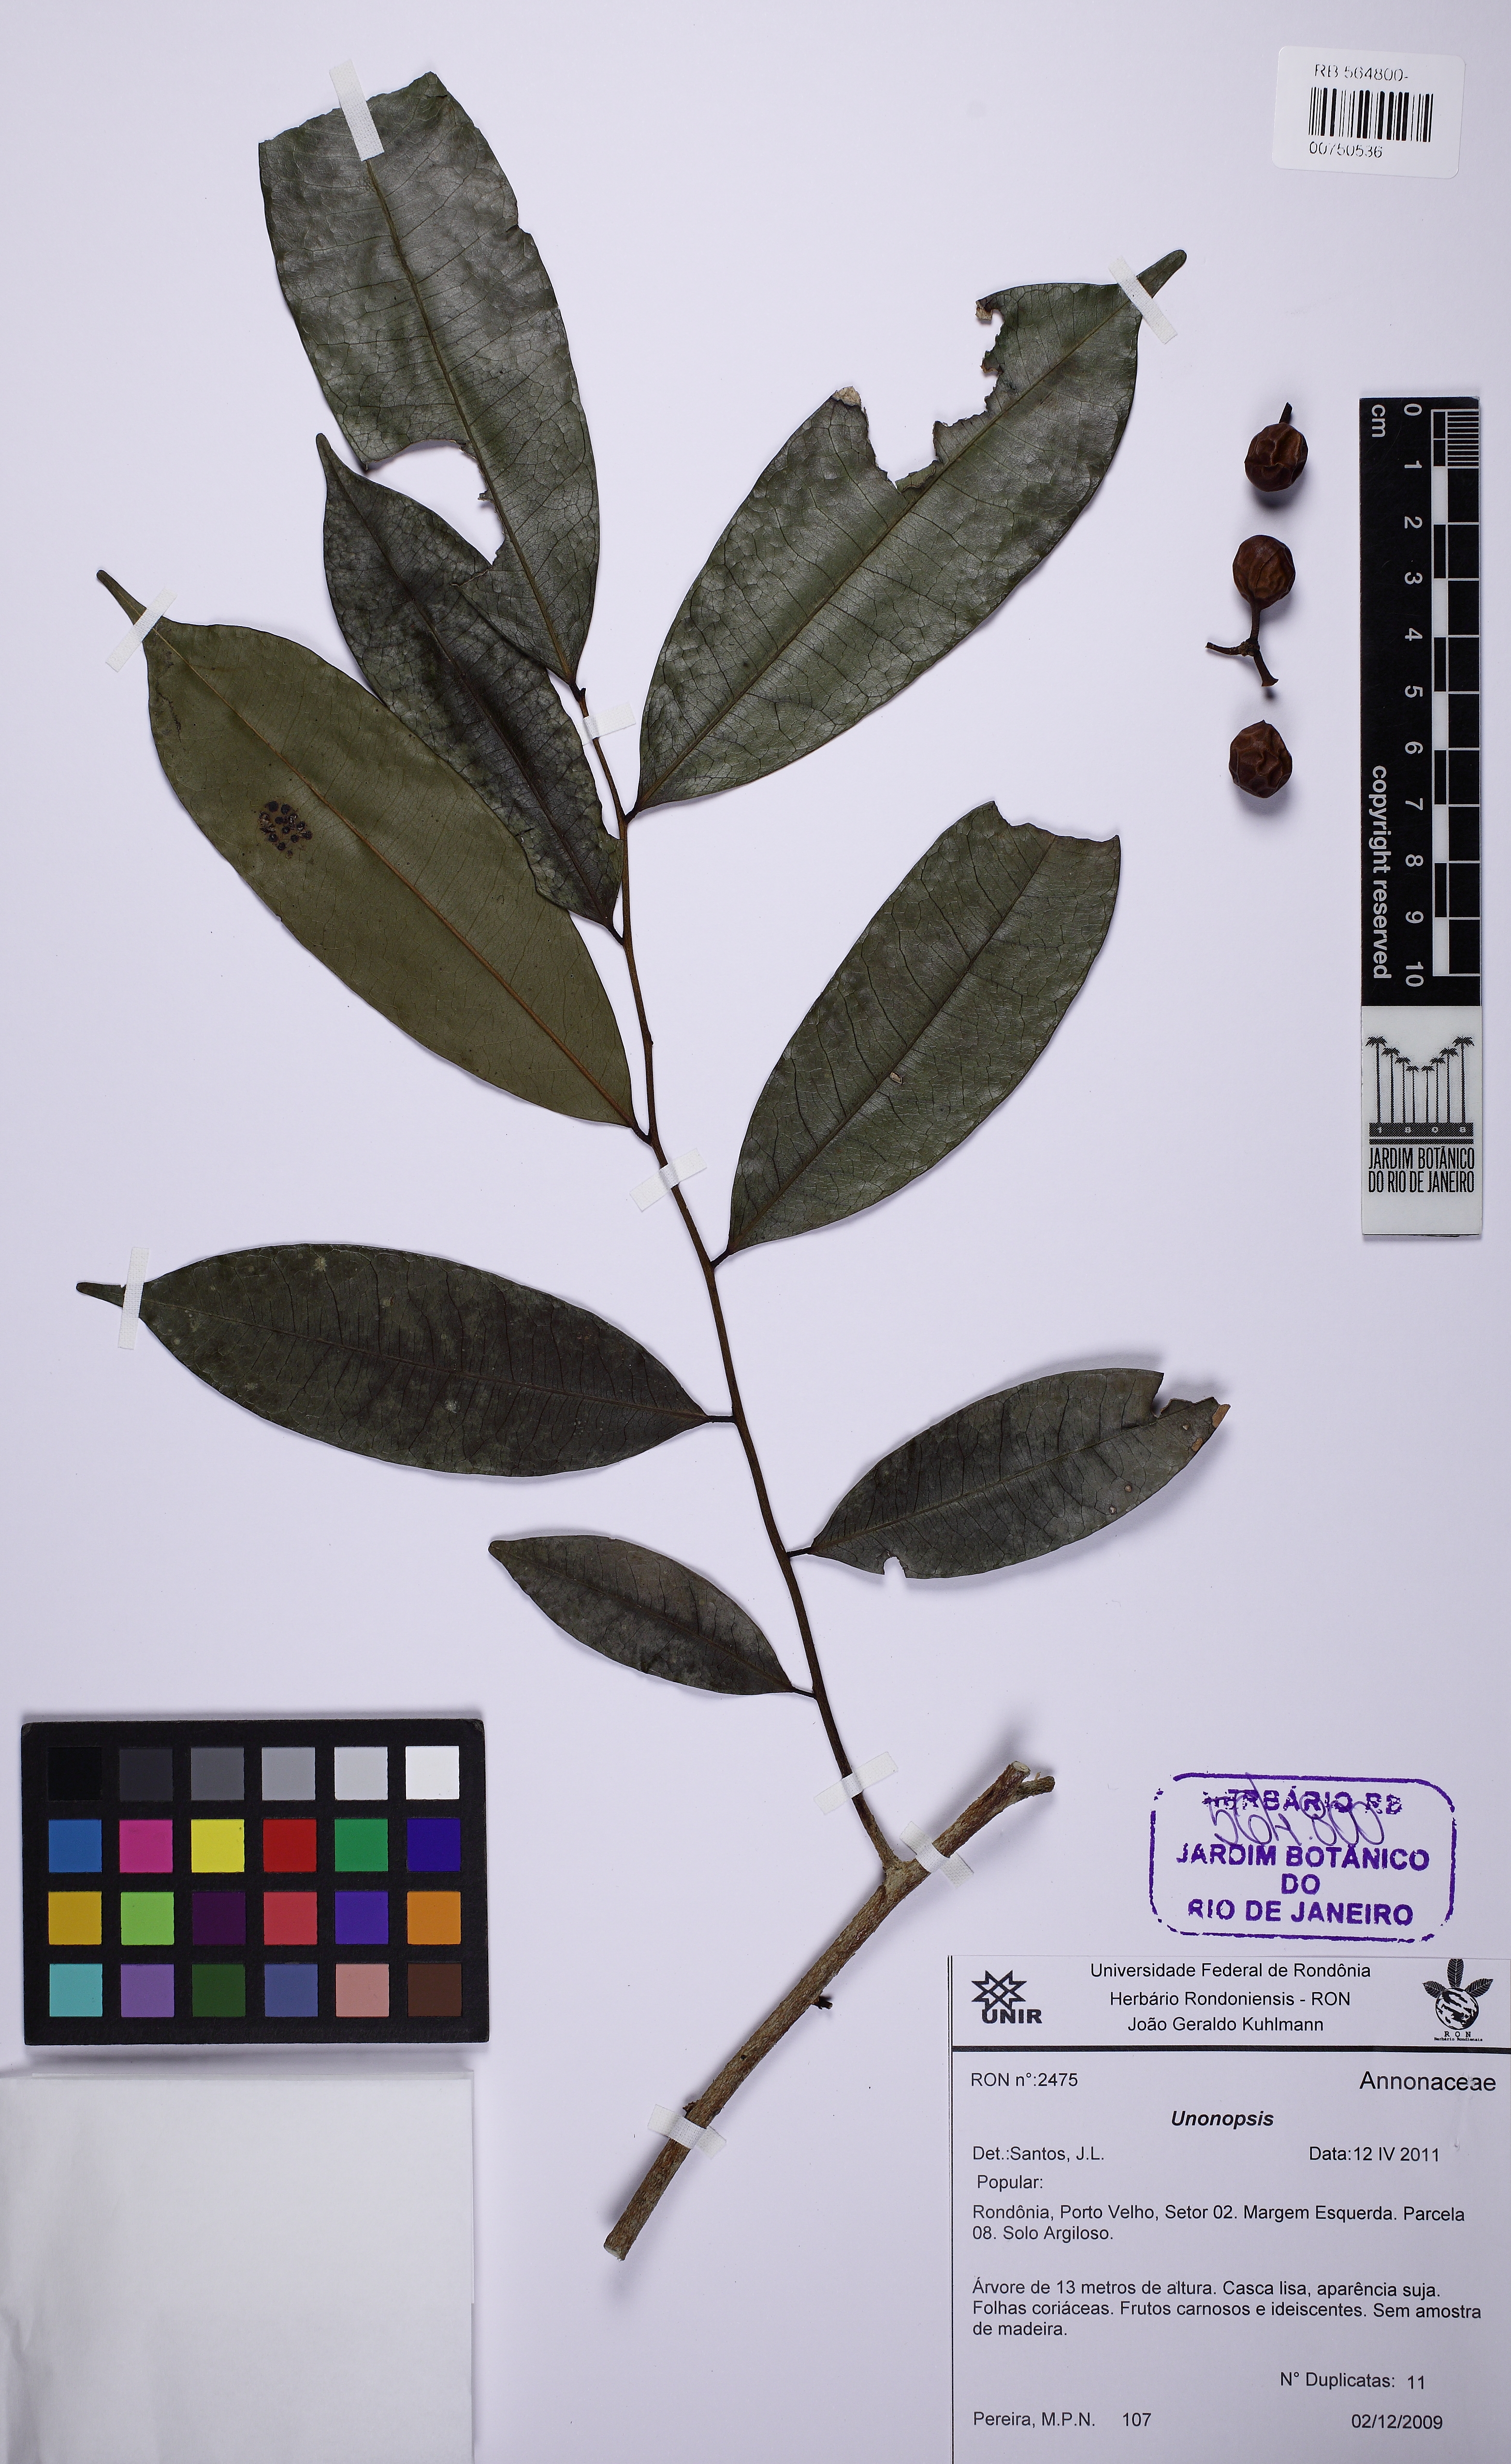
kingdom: Plantae
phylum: Tracheophyta
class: Magnoliopsida
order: Magnoliales
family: Annonaceae
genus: Pseudoxandra
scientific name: Pseudoxandra polyphleba
